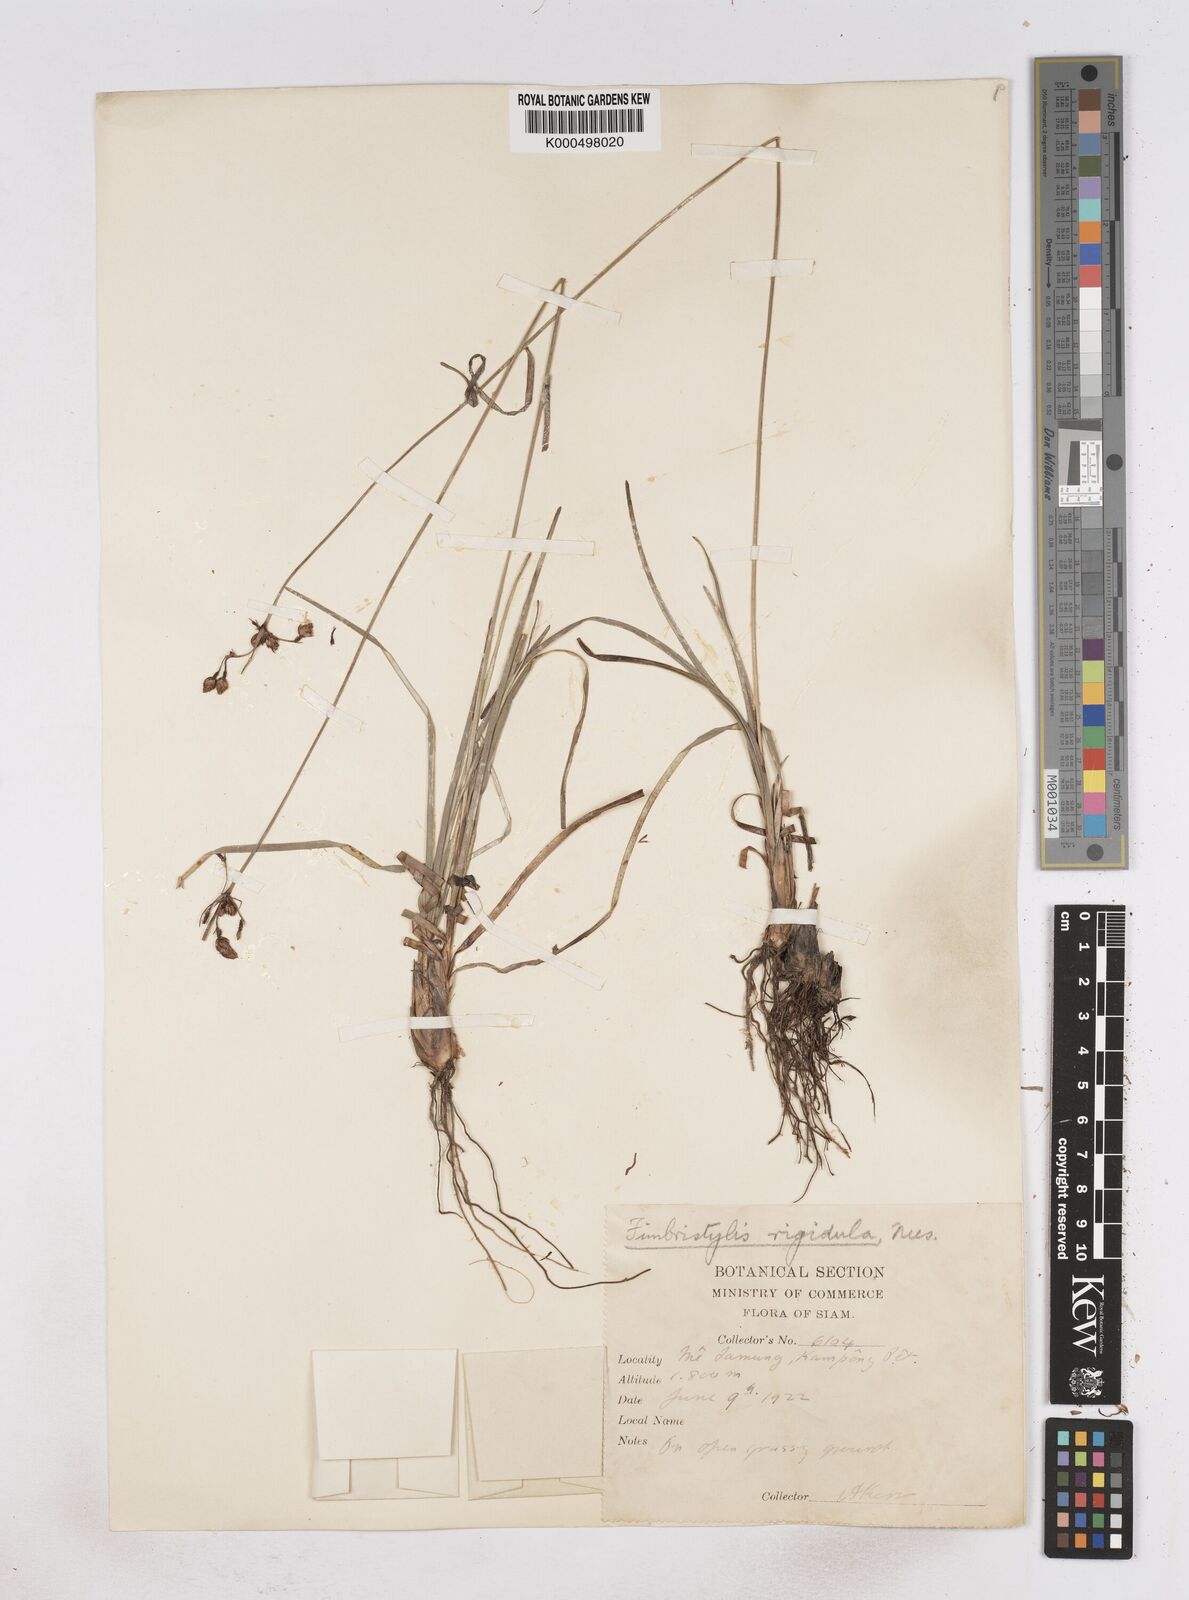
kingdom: Plantae
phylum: Tracheophyta
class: Liliopsida
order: Poales
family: Cyperaceae
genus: Fimbristylis
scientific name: Fimbristylis rigidula
